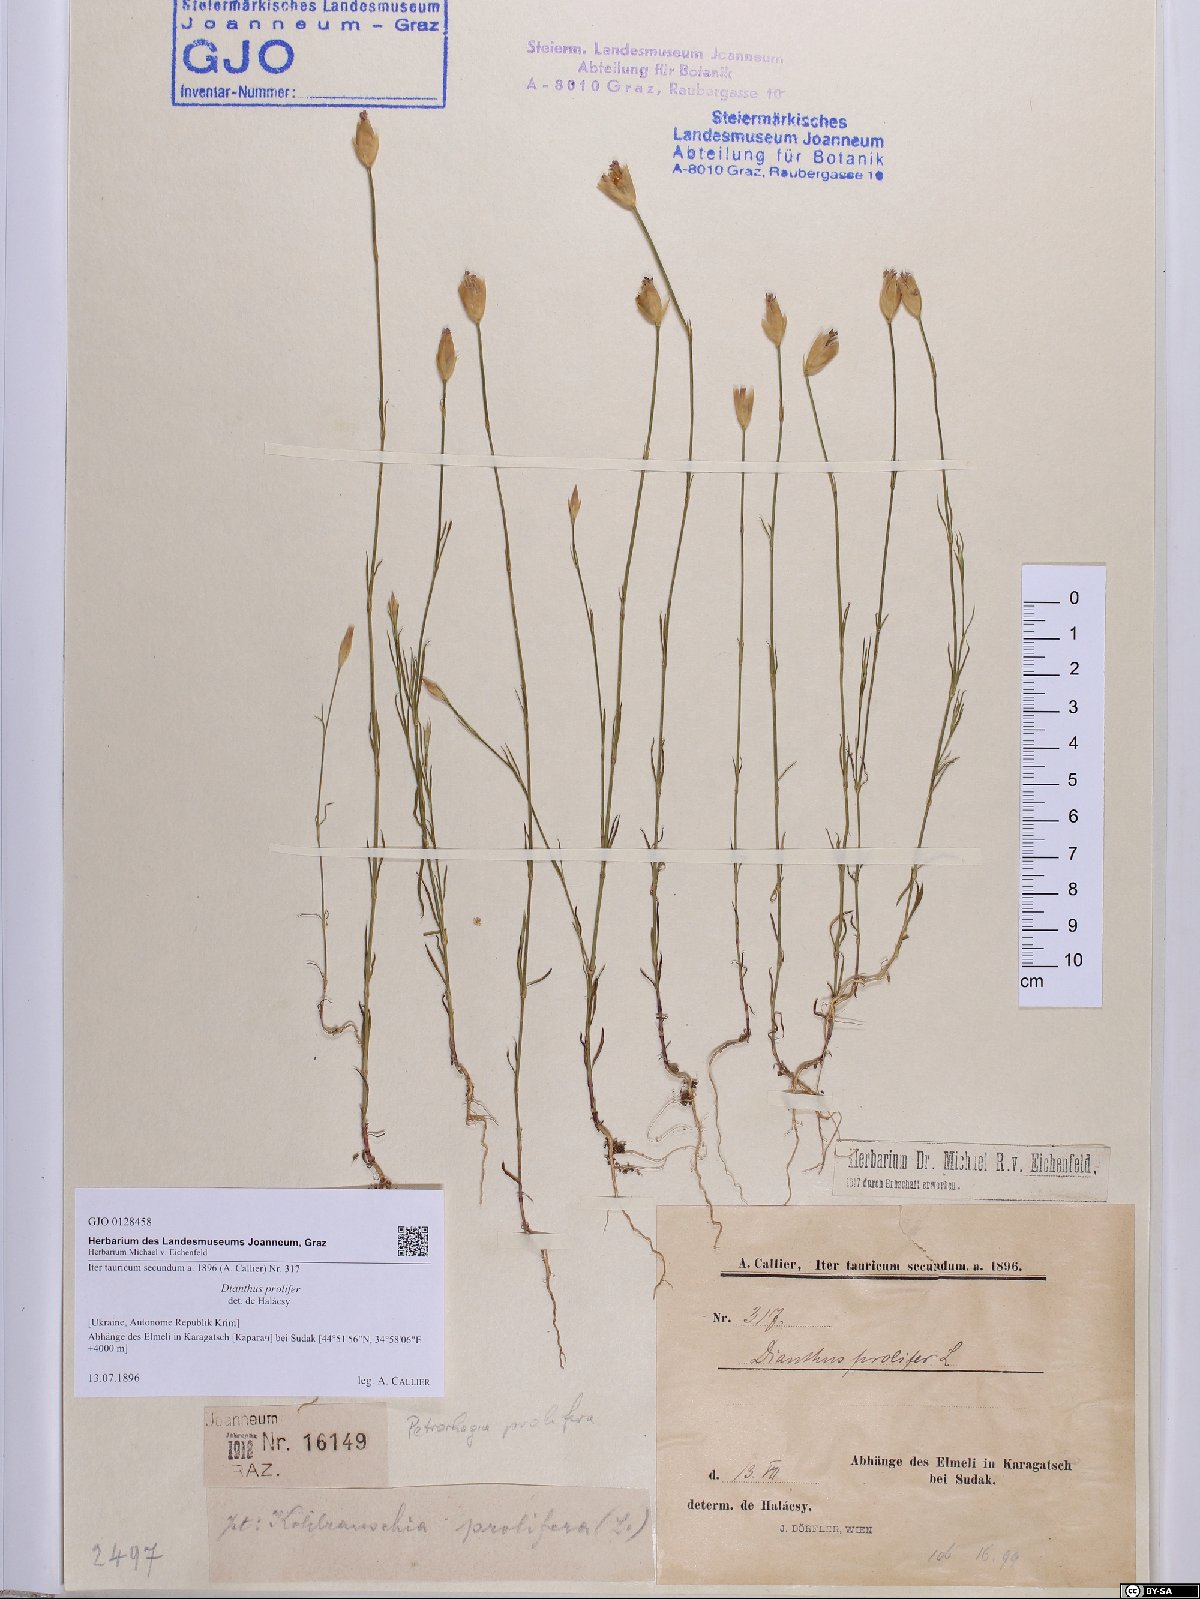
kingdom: Plantae
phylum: Tracheophyta
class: Magnoliopsida
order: Caryophyllales
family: Caryophyllaceae
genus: Petrorhagia
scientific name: Petrorhagia prolifera
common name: Proliferous pink
